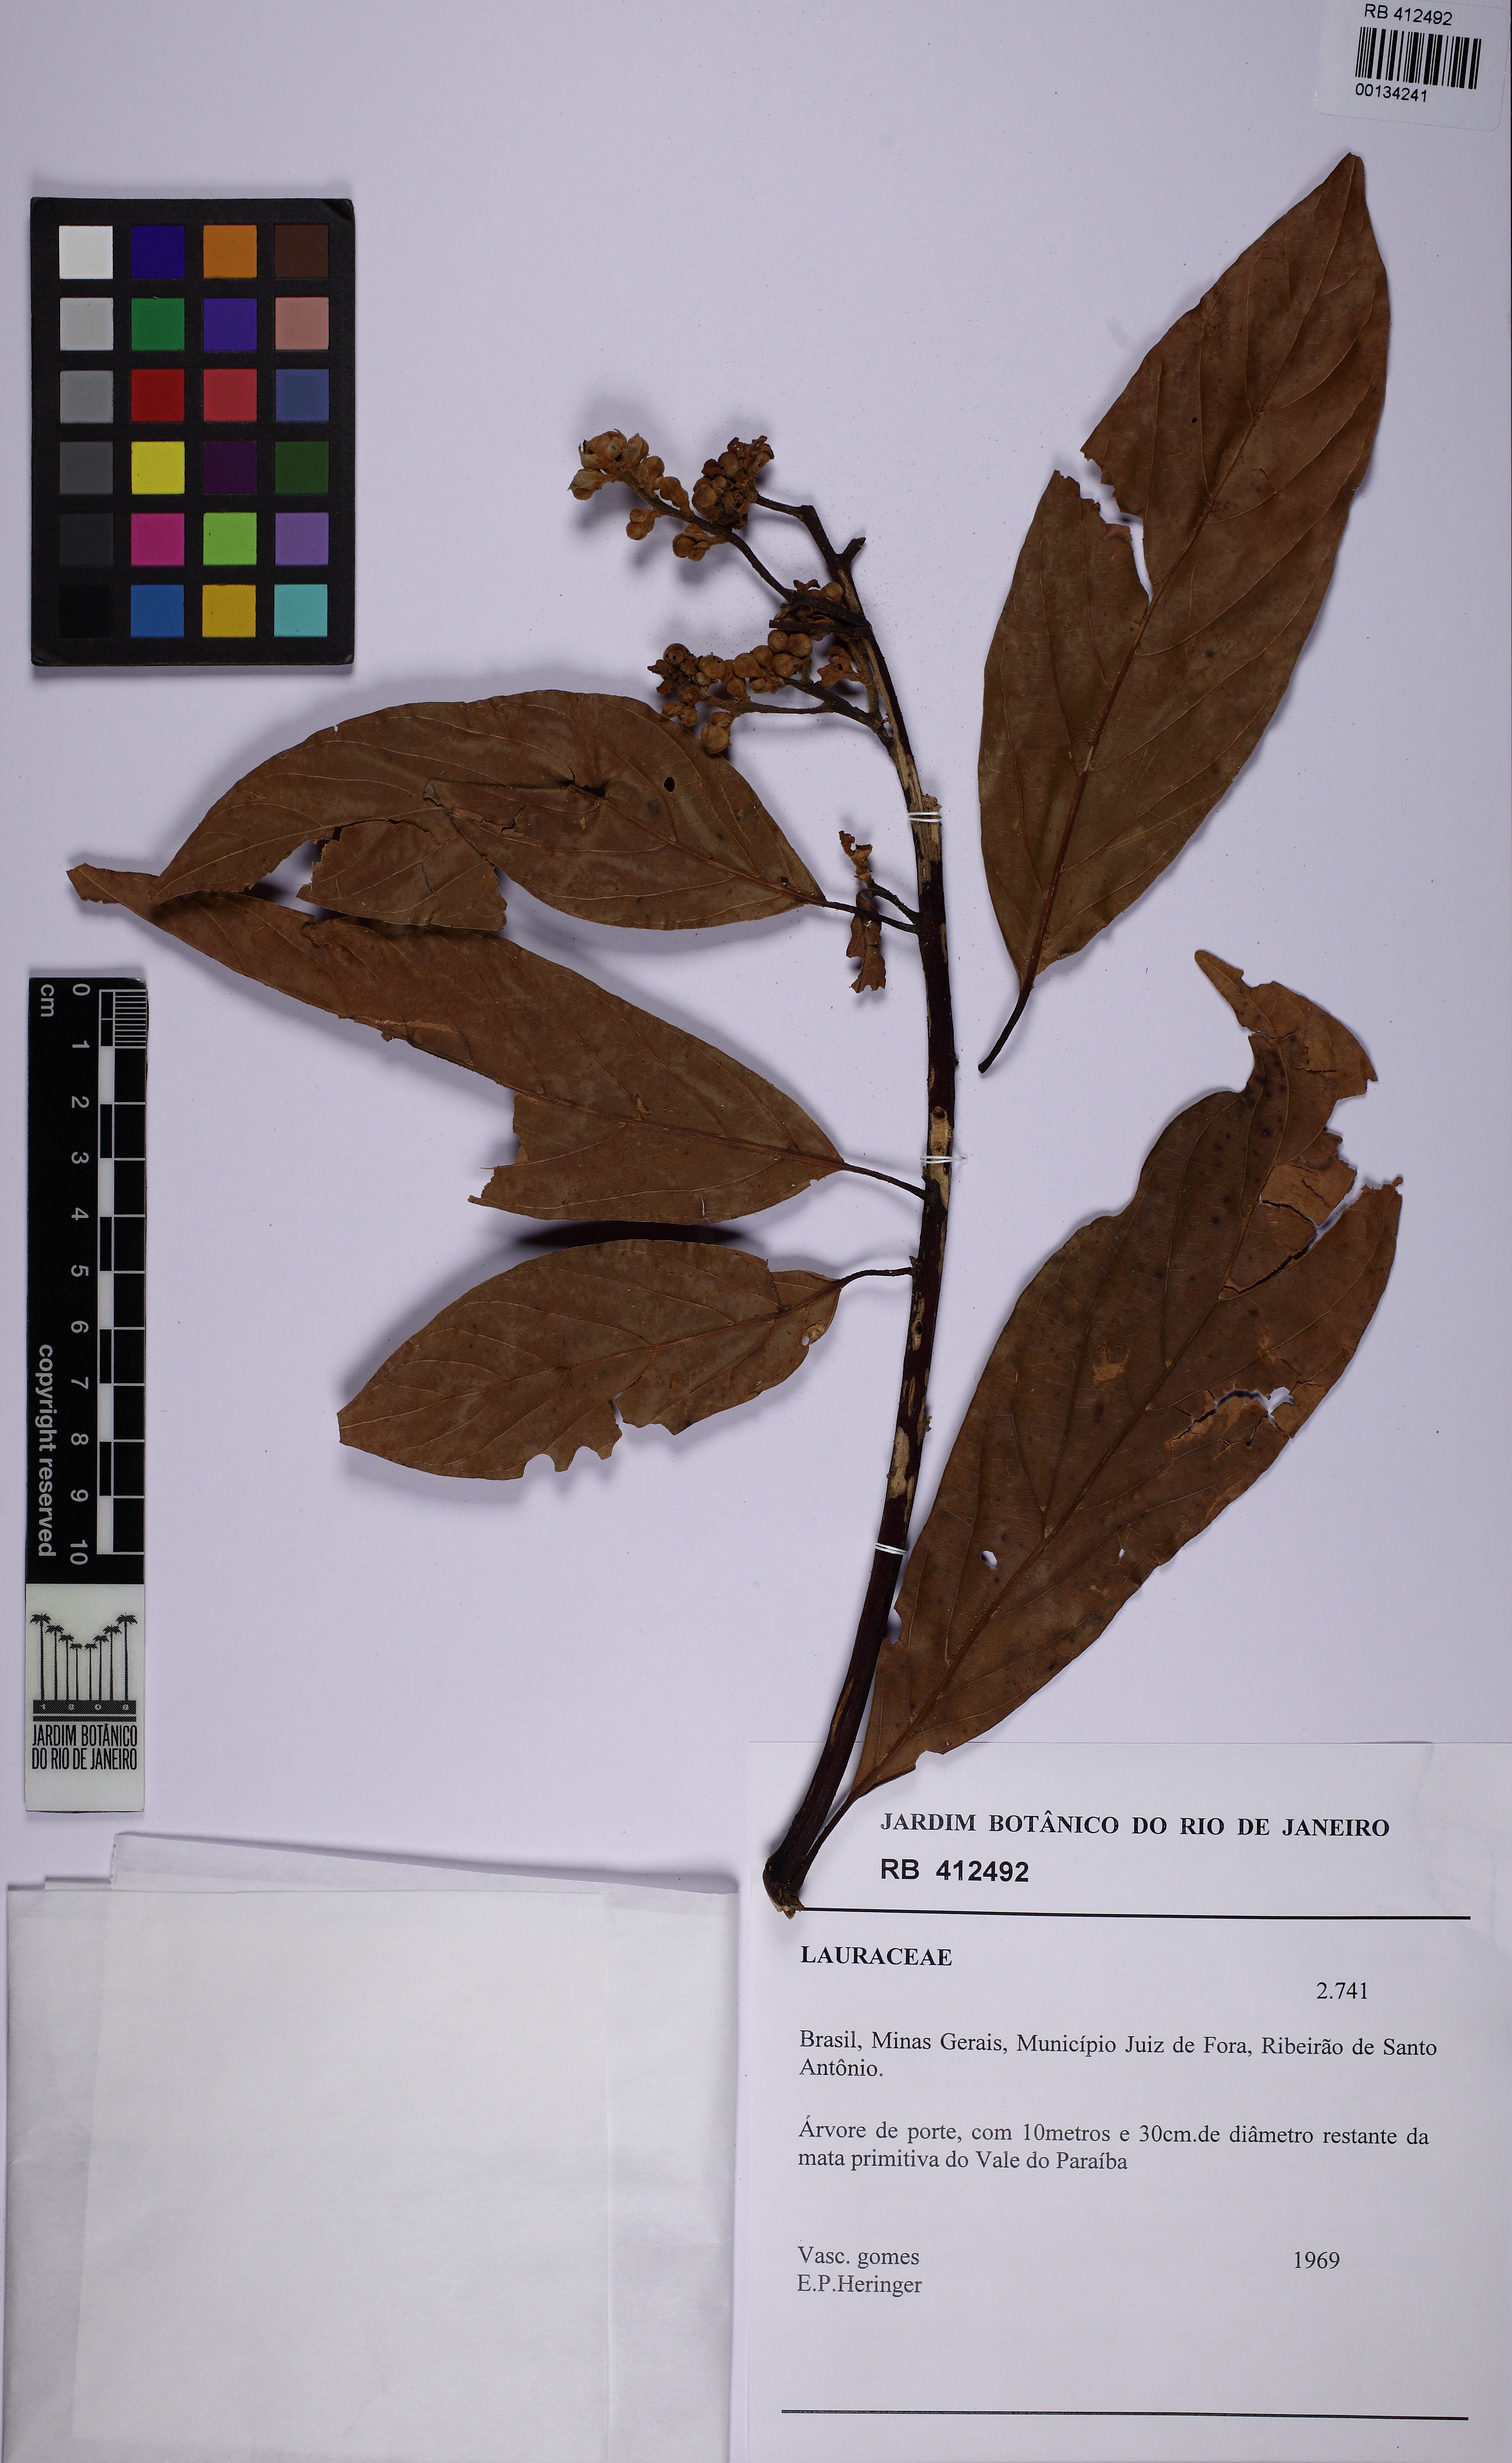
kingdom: Plantae
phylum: Tracheophyta
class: Magnoliopsida
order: Laurales
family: Lauraceae
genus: Nectandra
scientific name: Nectandra
